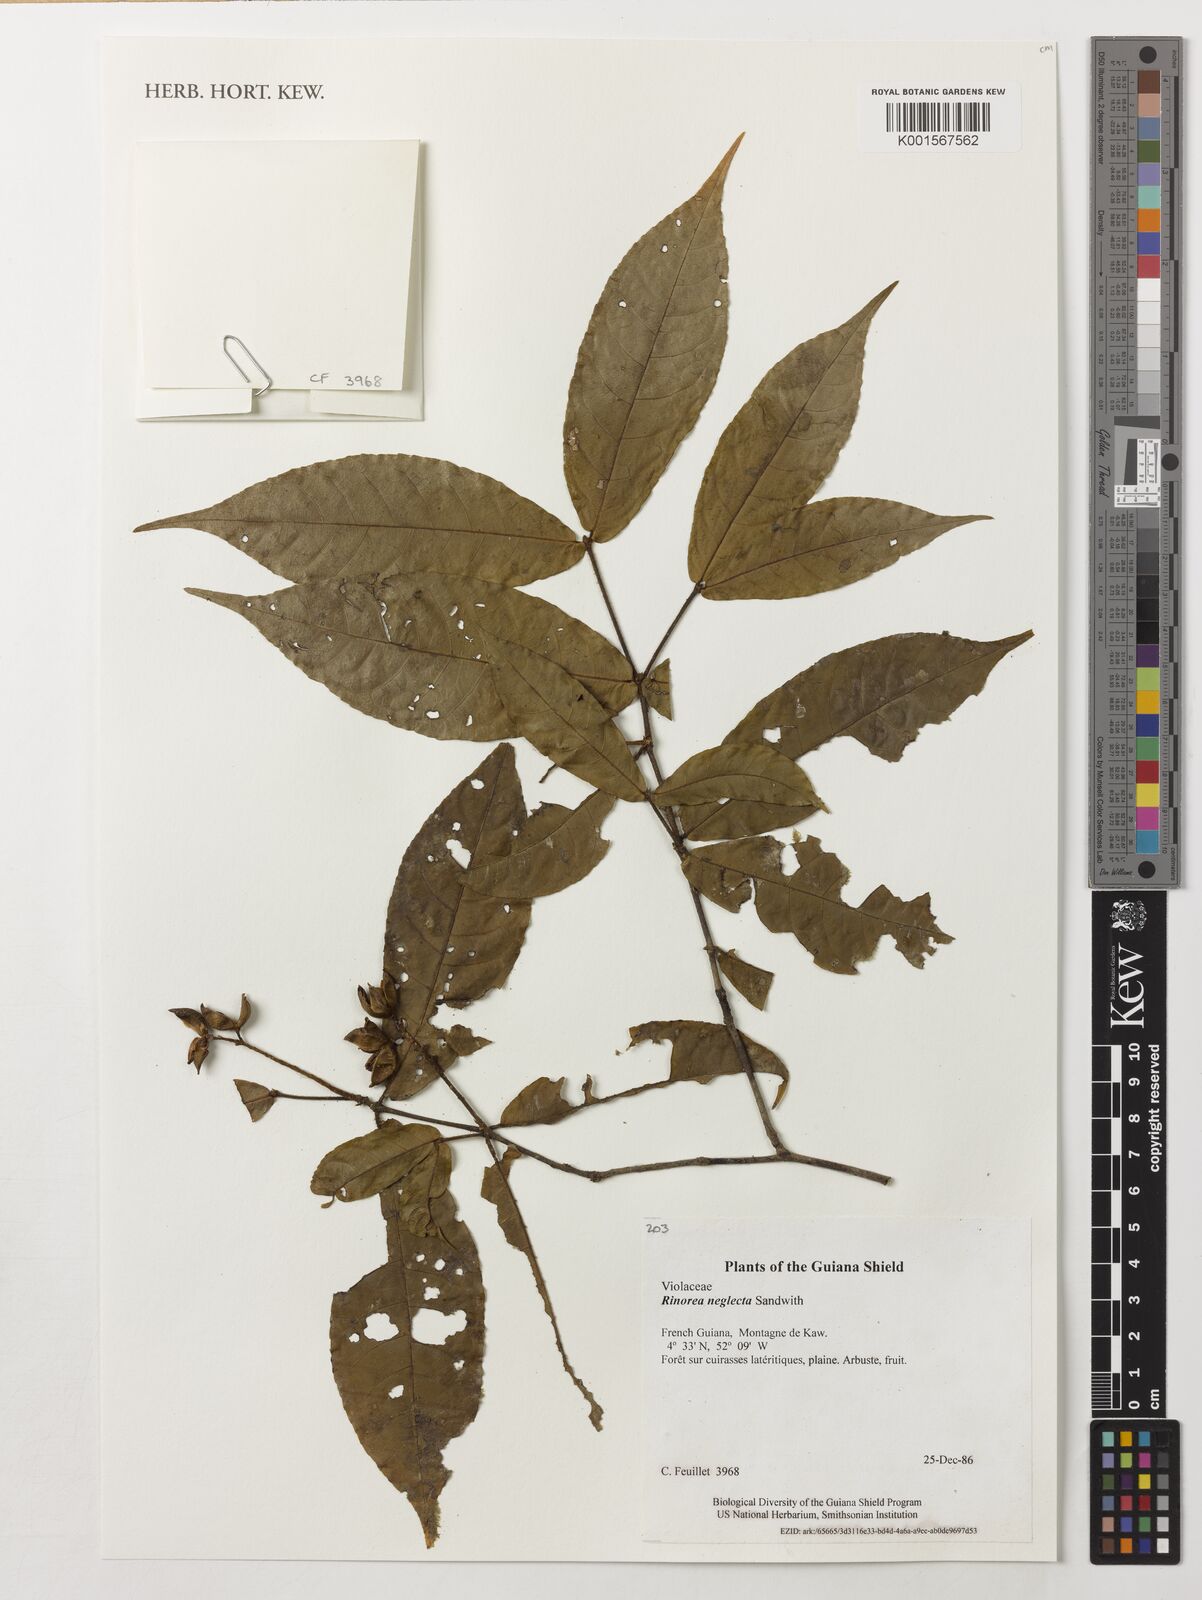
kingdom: Plantae
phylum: Tracheophyta
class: Magnoliopsida
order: Malpighiales
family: Violaceae
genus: Rinorea
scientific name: Rinorea neglecta
